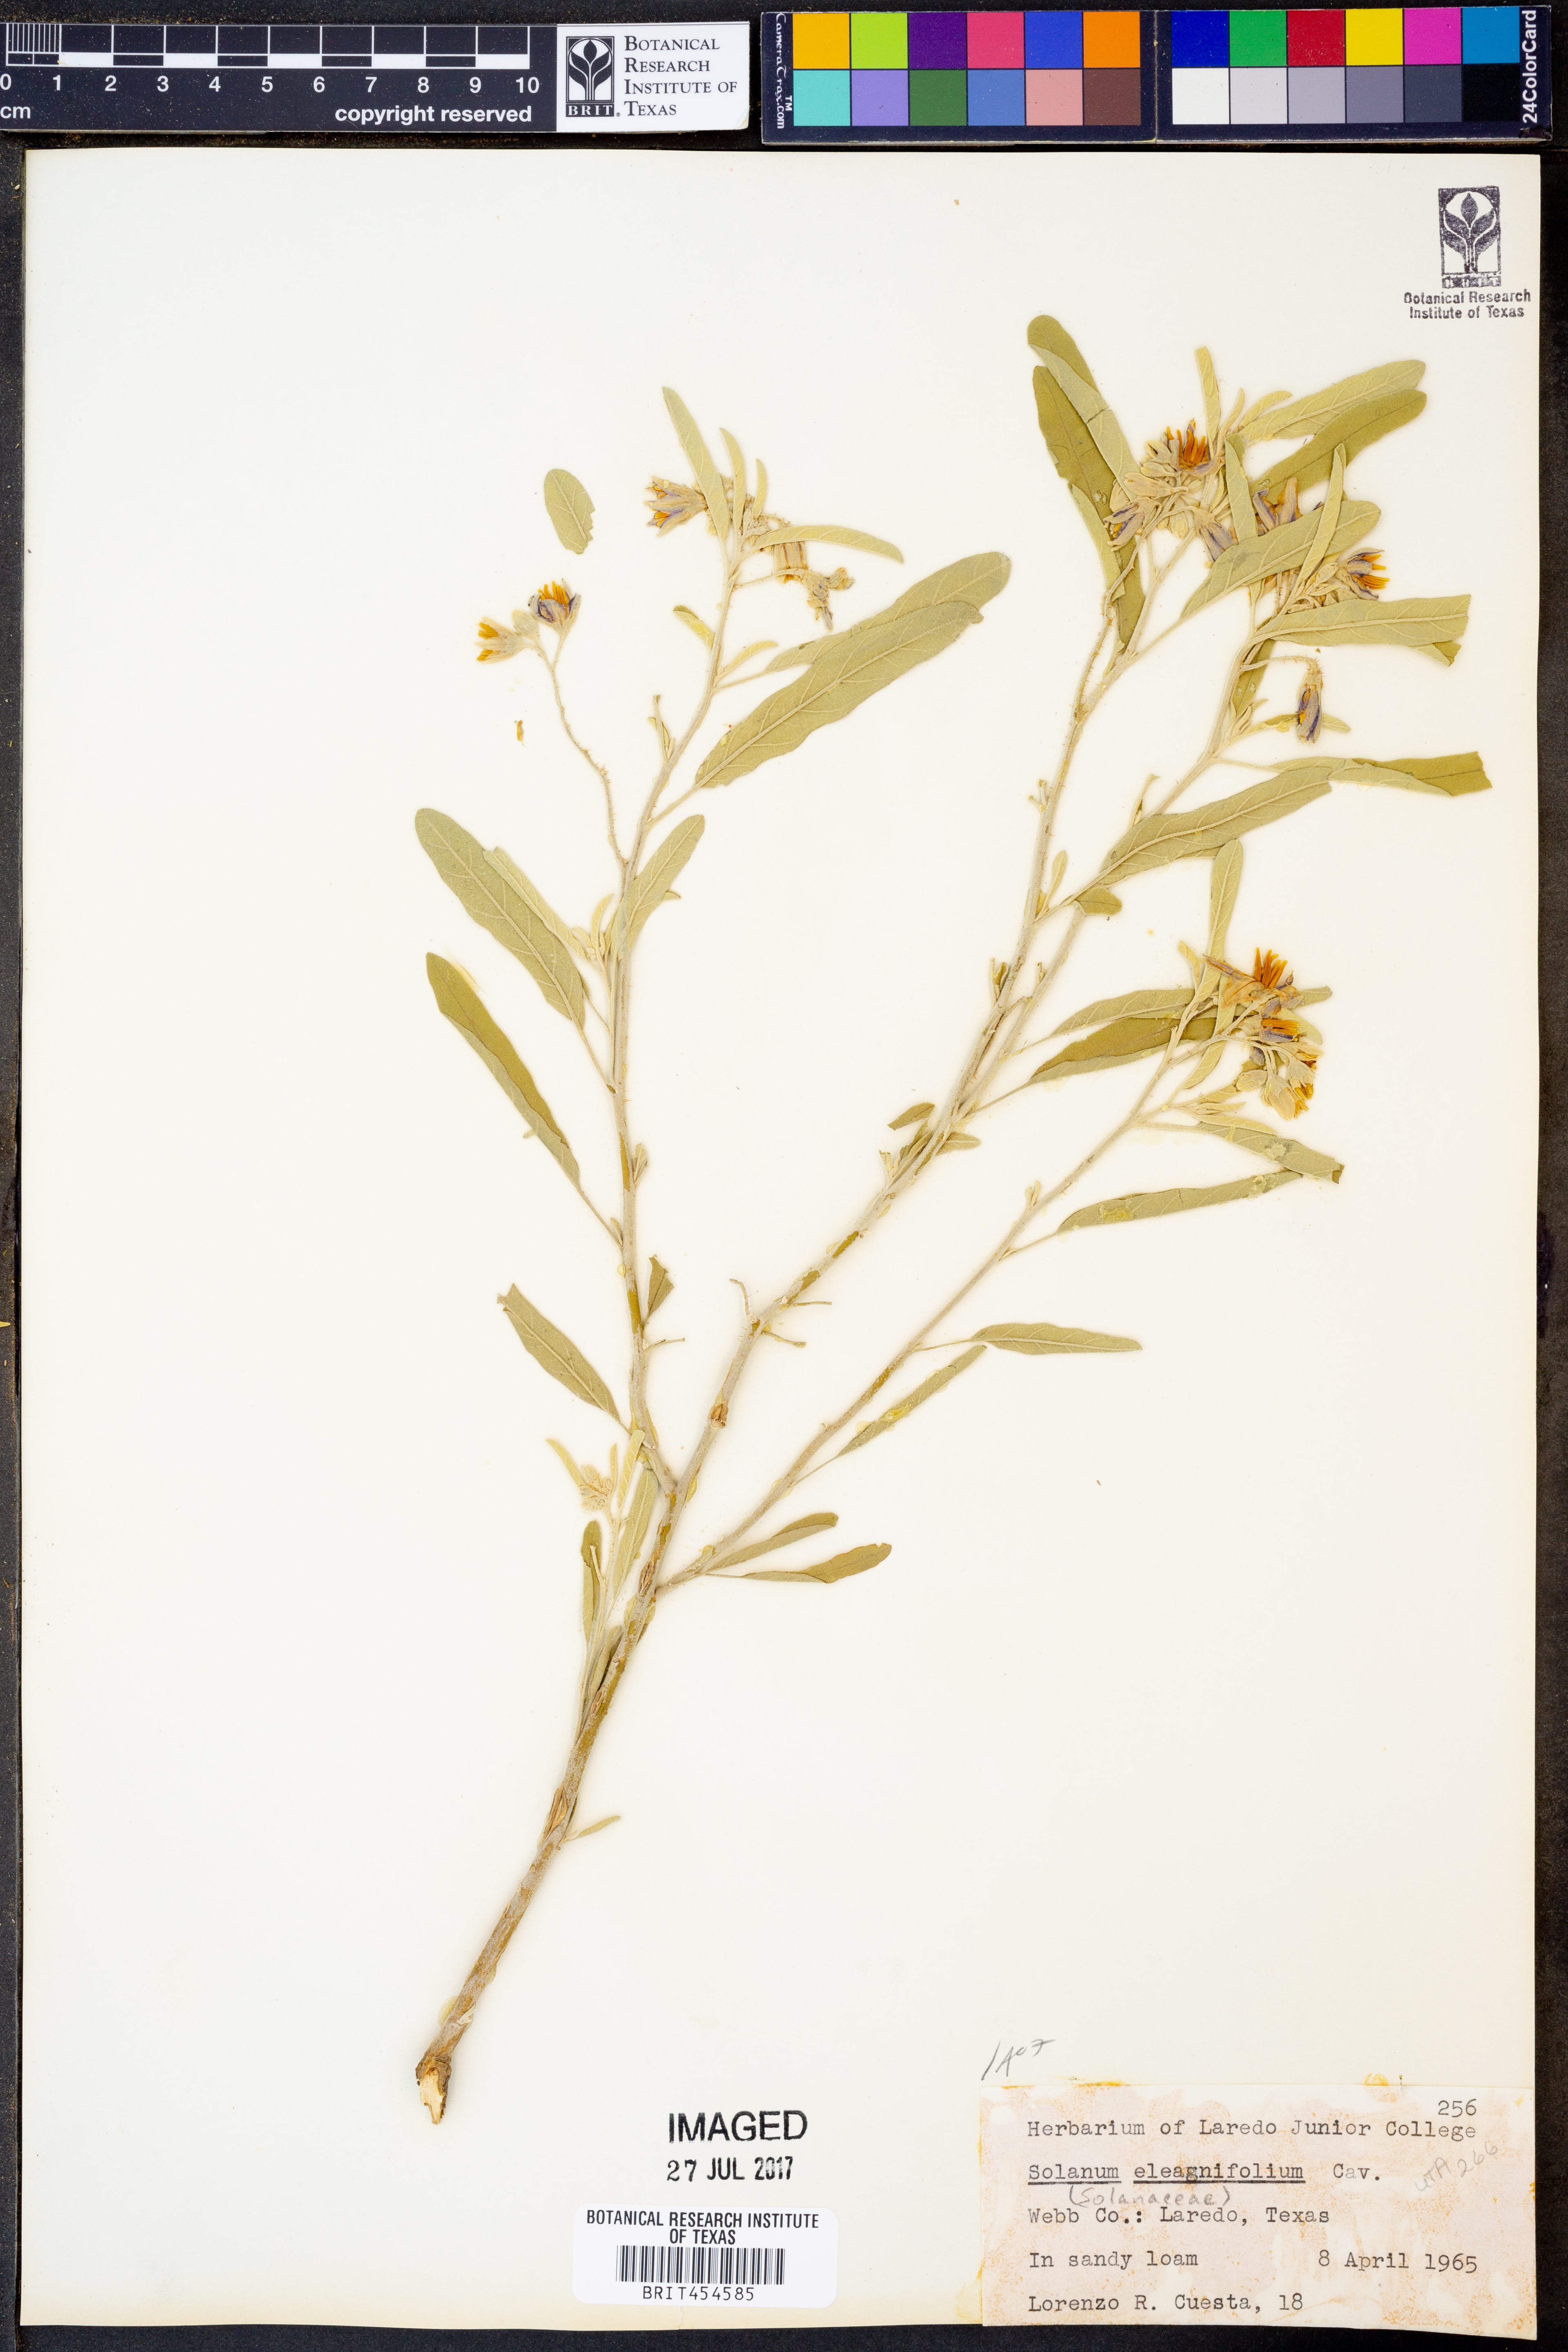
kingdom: Plantae
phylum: Tracheophyta
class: Magnoliopsida
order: Solanales
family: Solanaceae
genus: Solanum
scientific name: Solanum elaeagnifolium
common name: Silverleaf nightshade
